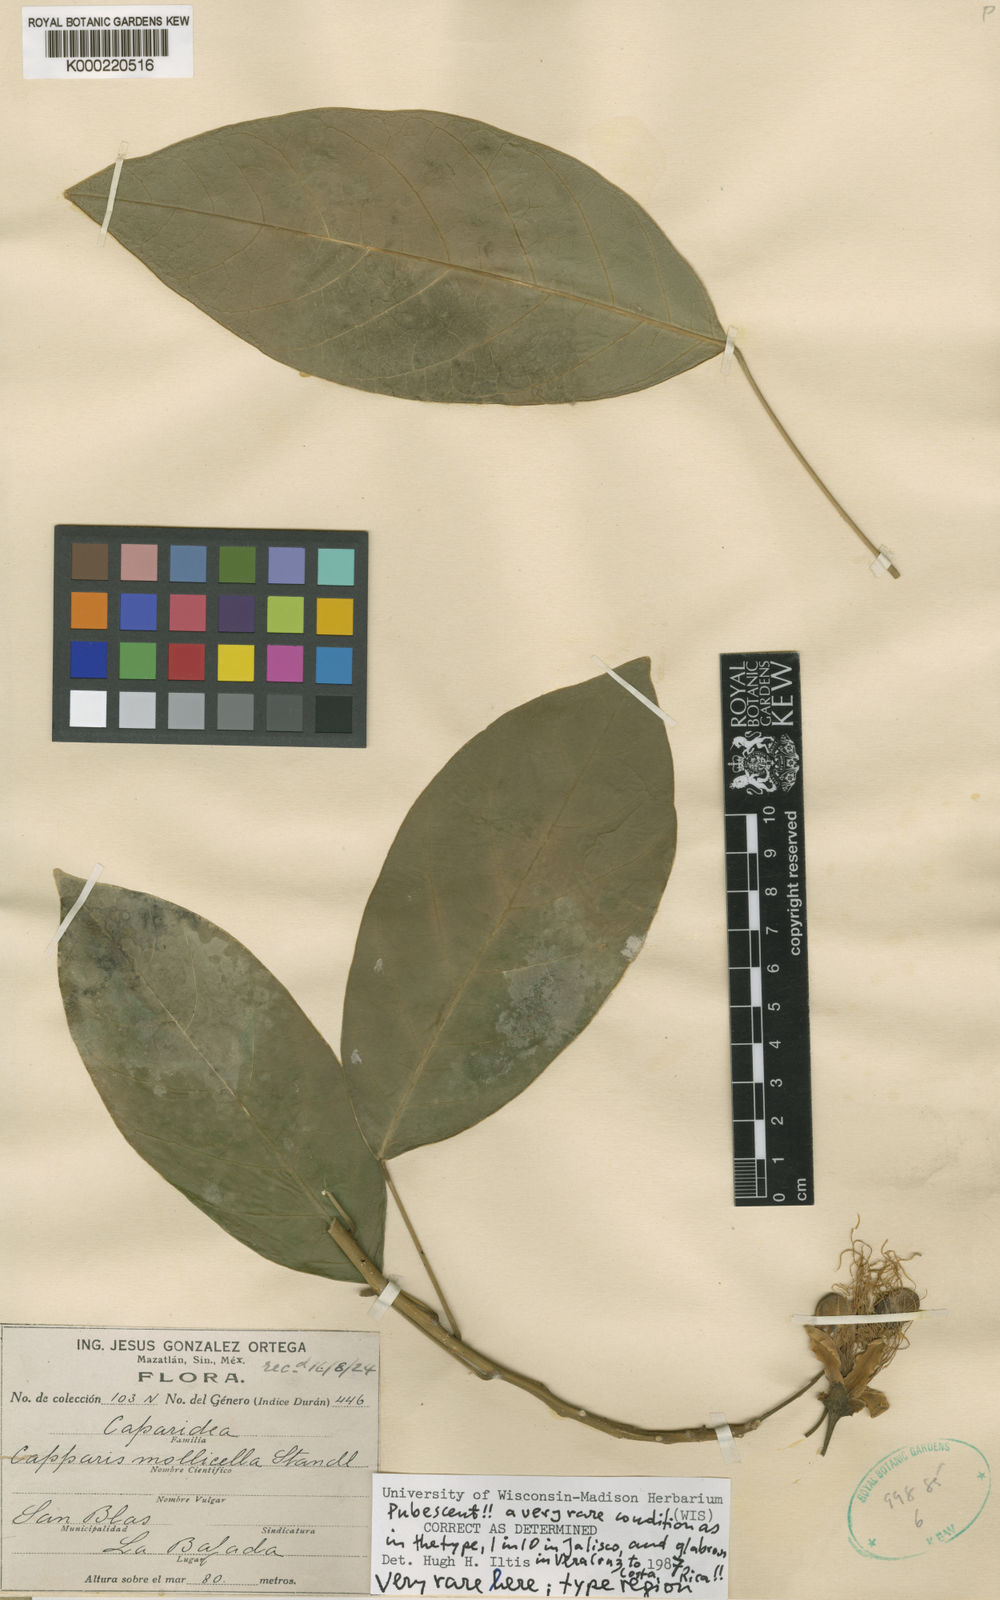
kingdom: Plantae
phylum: Tracheophyta
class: Magnoliopsida
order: Brassicales
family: Capparaceae
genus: Capparidastrum
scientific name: Capparidastrum mollicellum
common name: Caper
